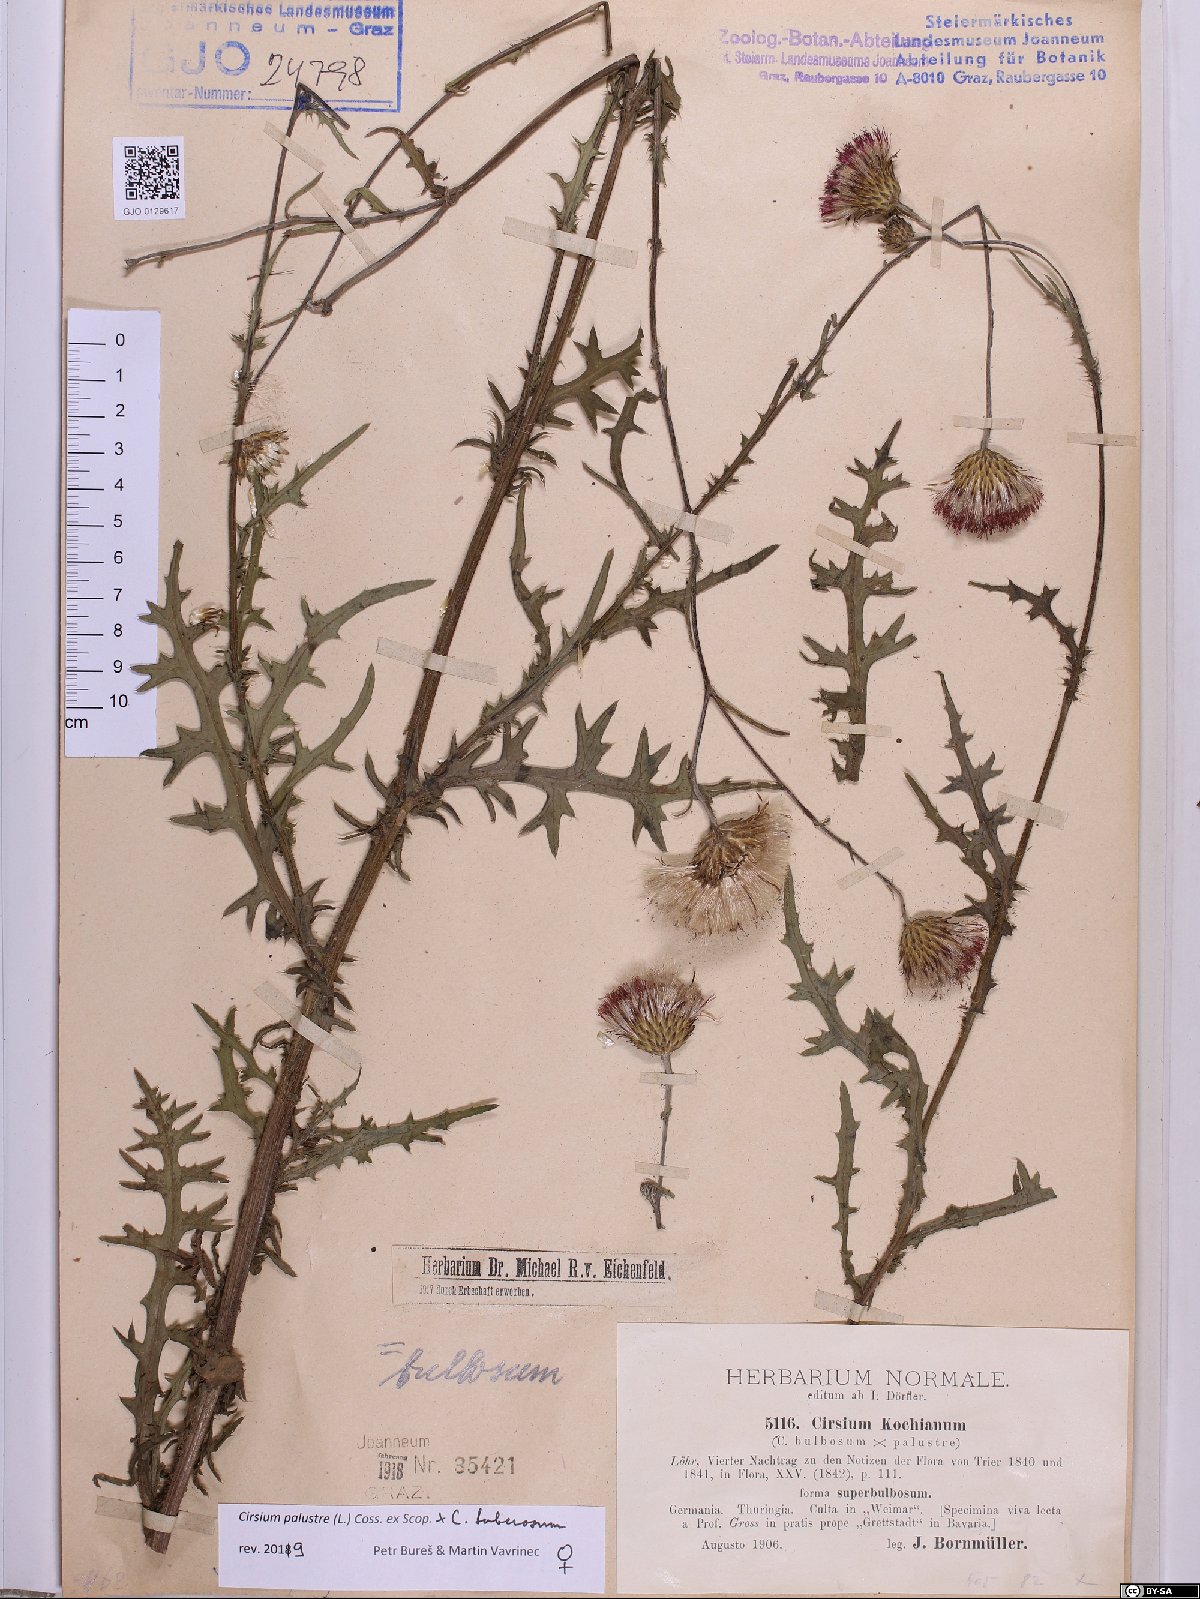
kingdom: Plantae
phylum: Tracheophyta
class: Magnoliopsida
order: Asterales
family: Asteraceae
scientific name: Asteraceae
